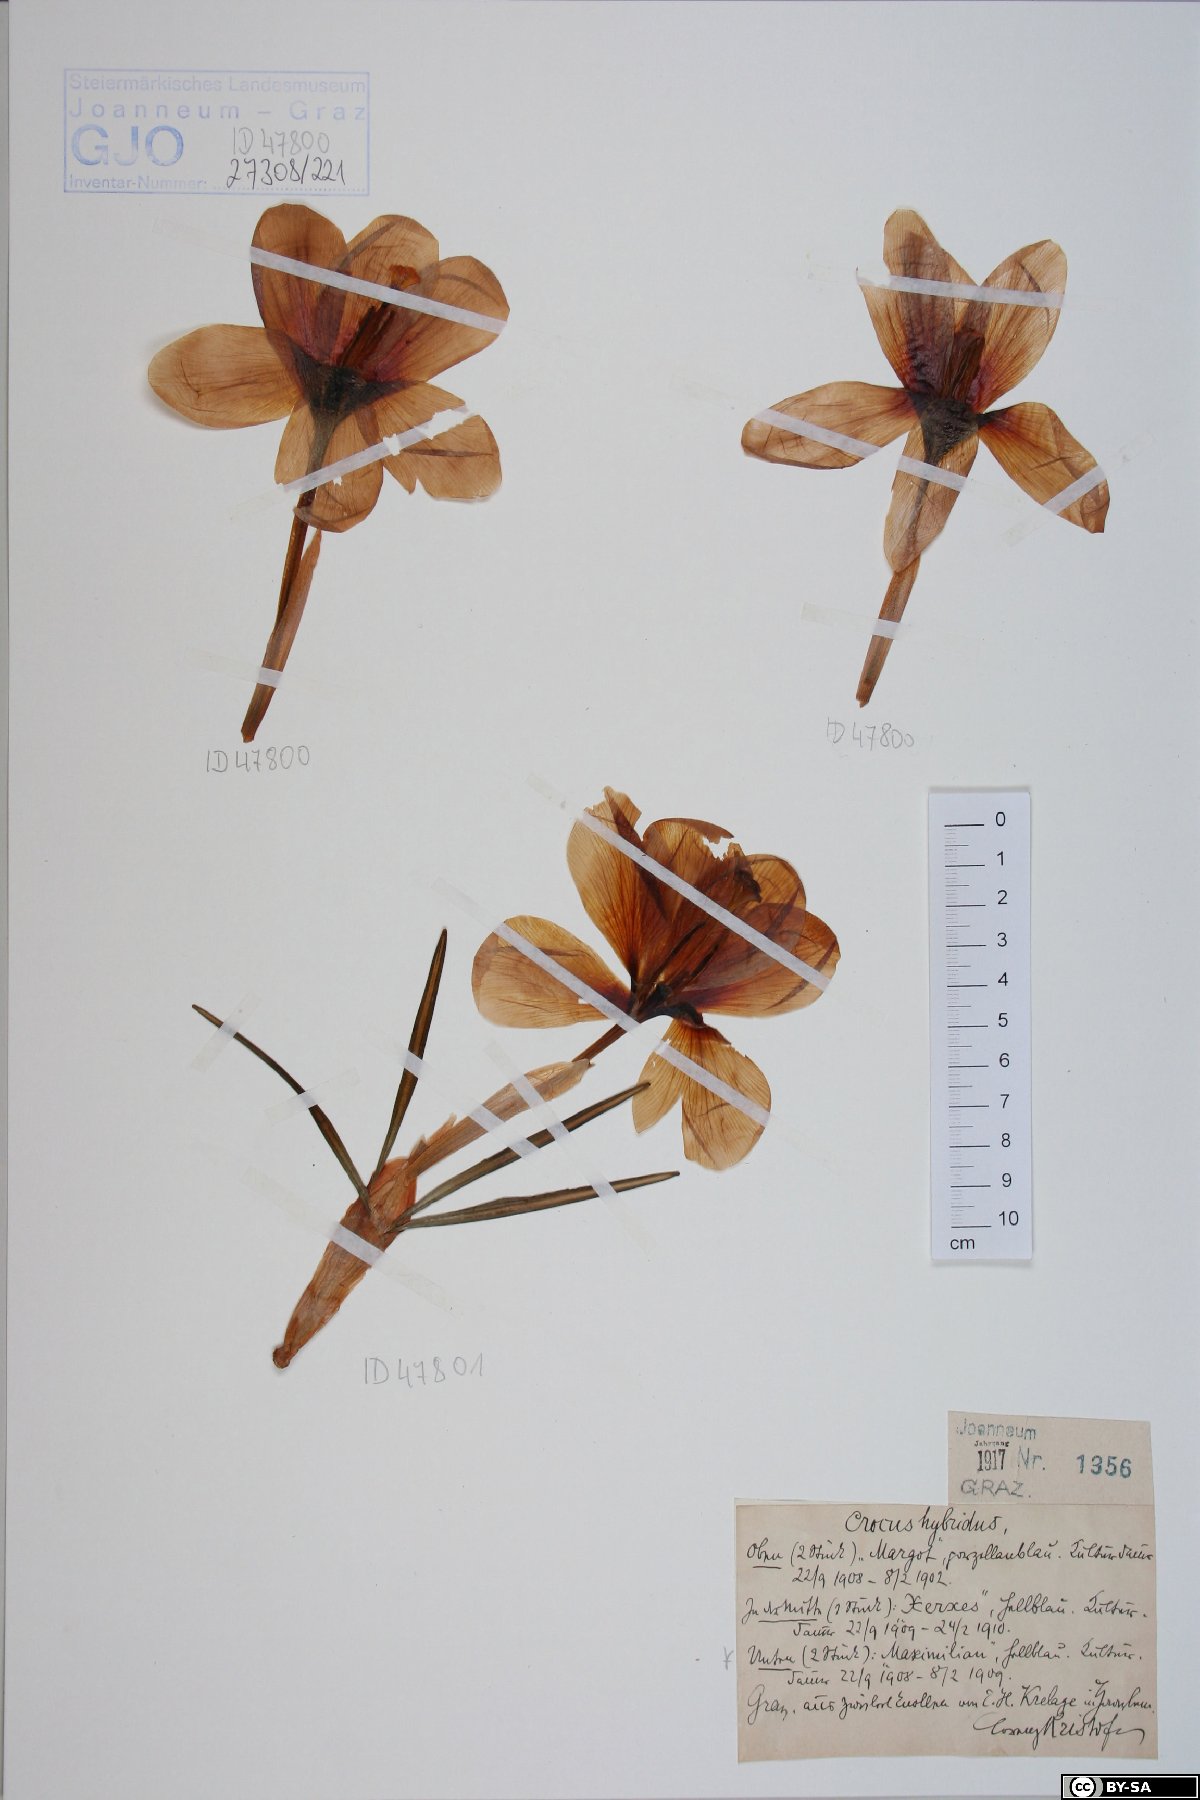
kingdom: Plantae
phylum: Tracheophyta
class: Liliopsida
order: Asparagales
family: Iridaceae
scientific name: Iridaceae
